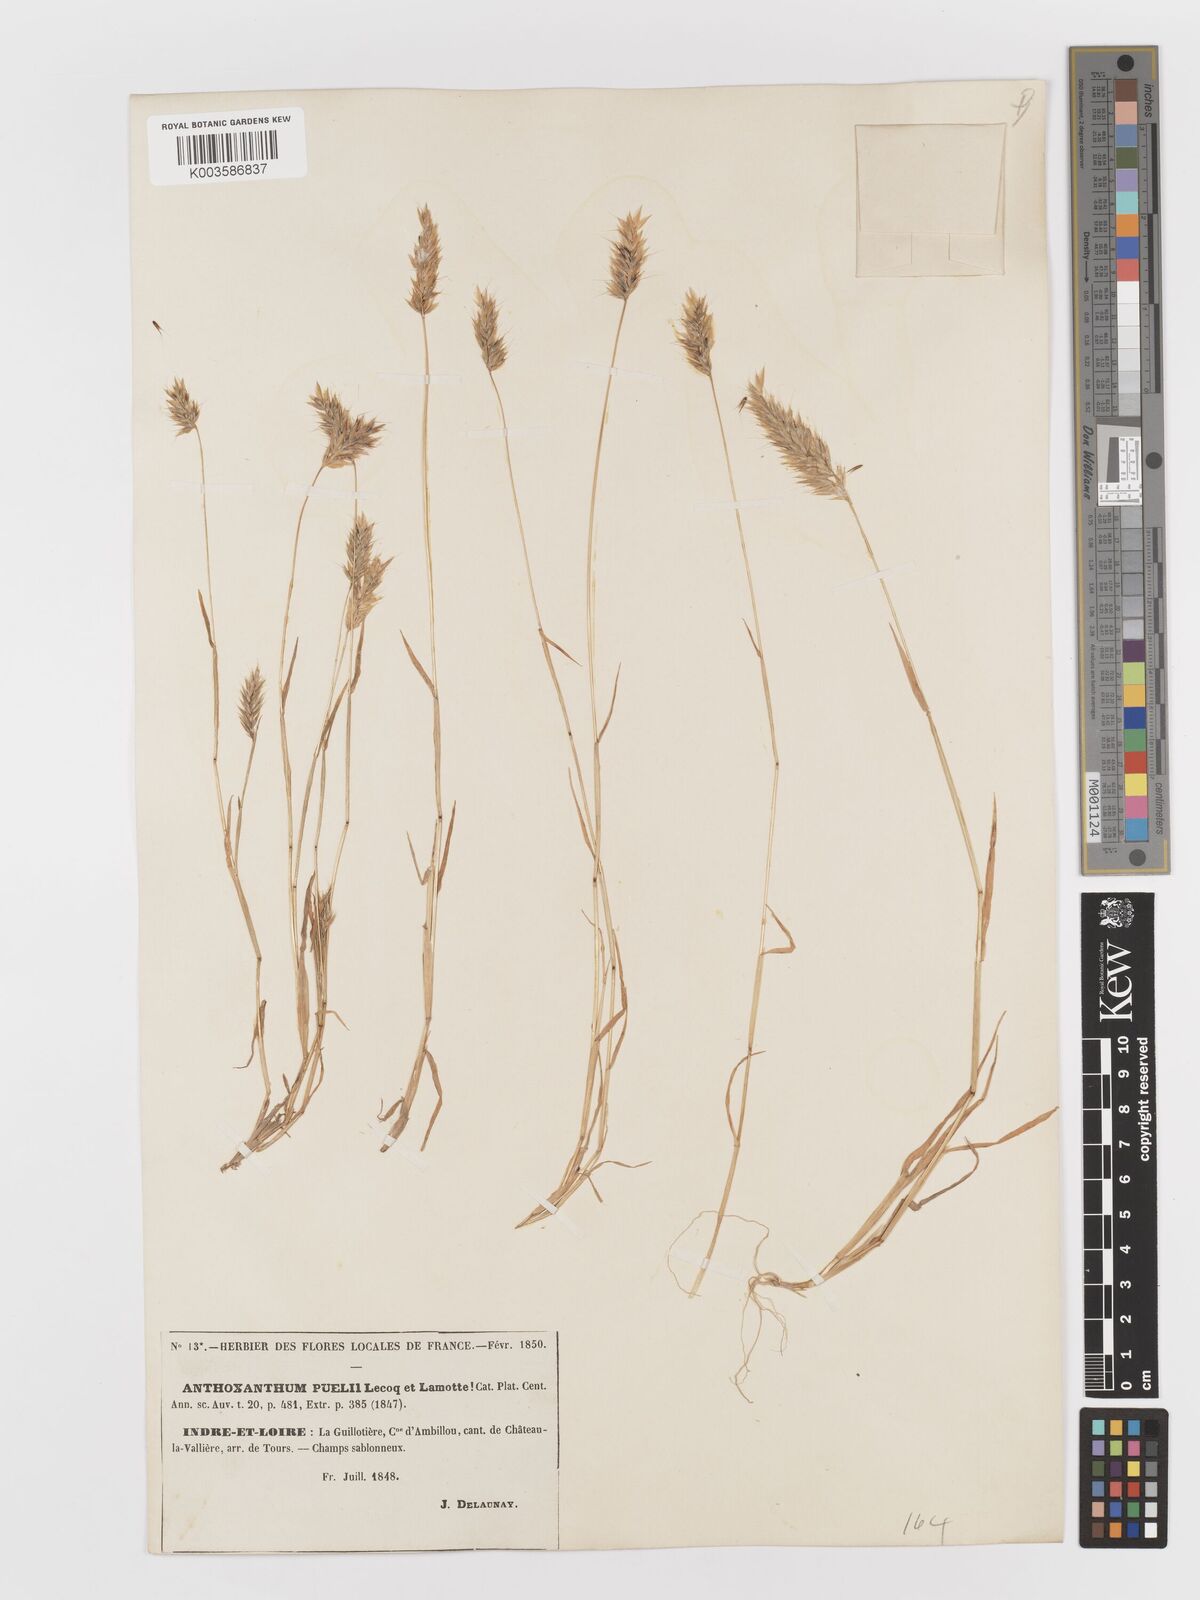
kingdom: Plantae
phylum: Tracheophyta
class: Liliopsida
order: Poales
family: Poaceae
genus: Anthoxanthum
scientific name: Anthoxanthum
